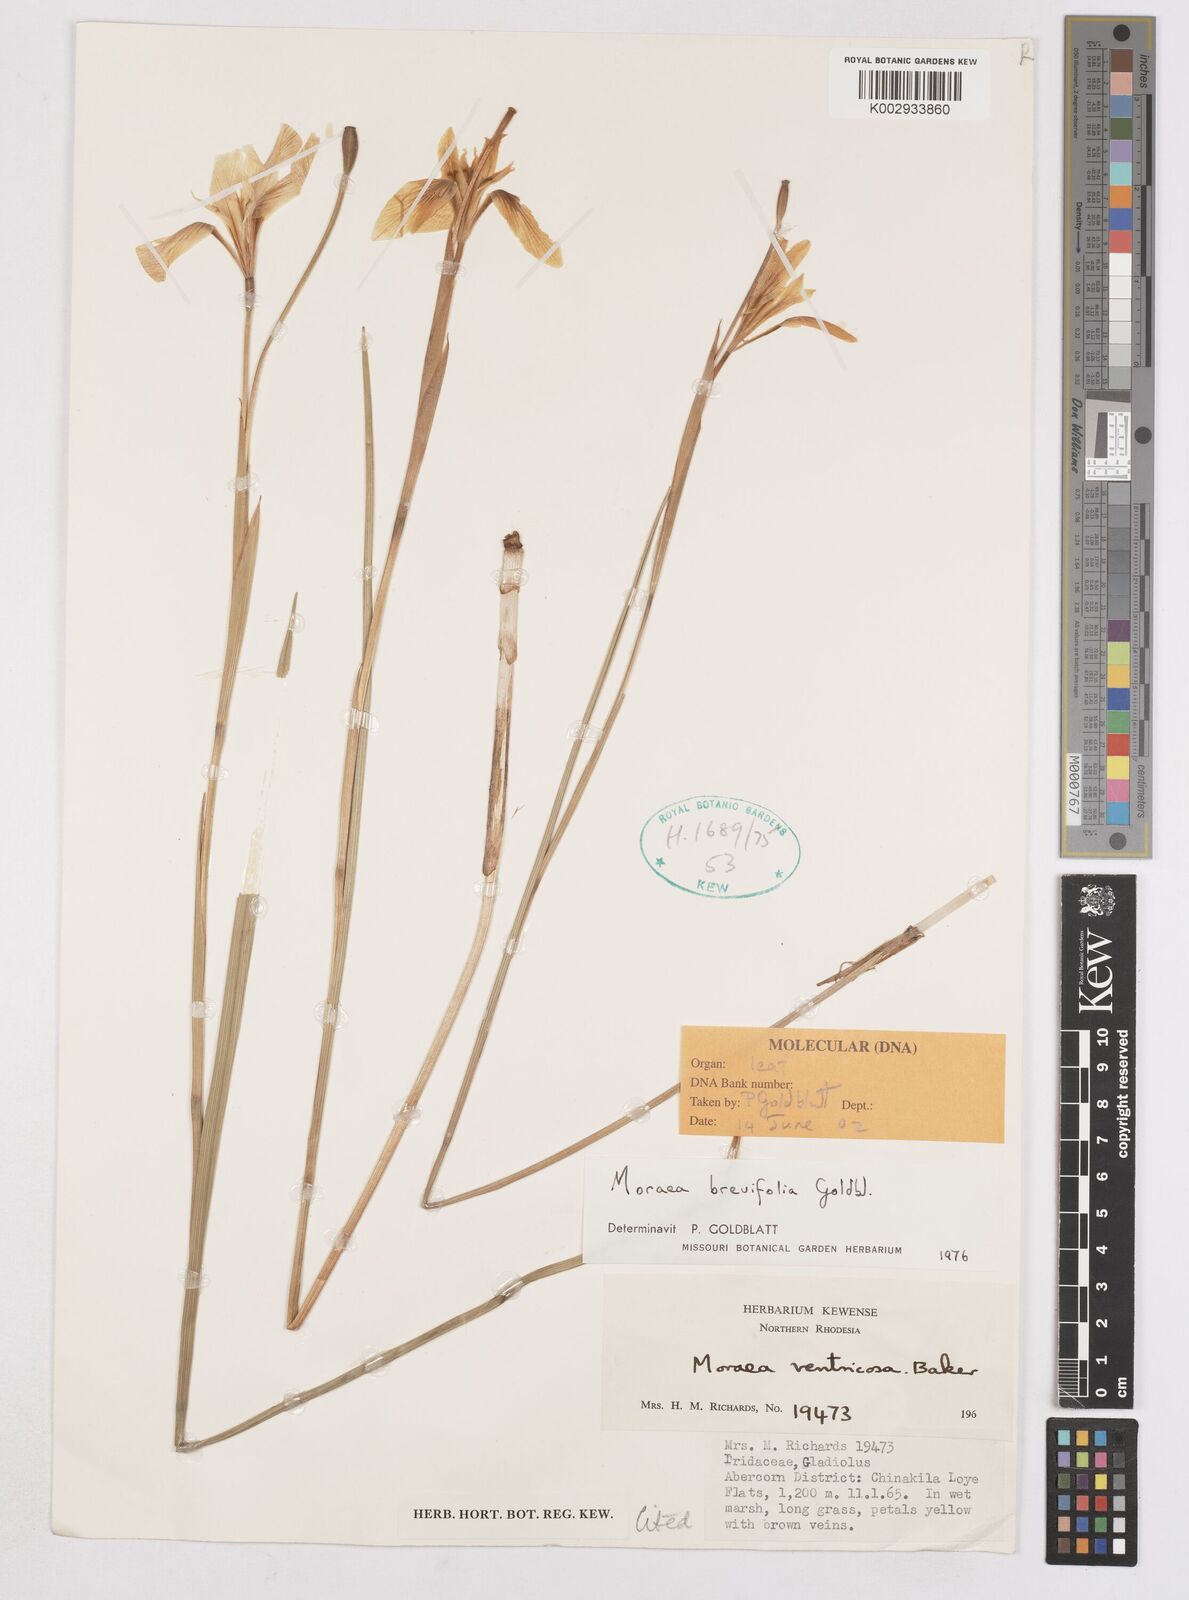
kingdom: Plantae
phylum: Tracheophyta
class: Liliopsida
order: Asparagales
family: Iridaceae
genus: Moraea
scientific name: Moraea brevifolia
